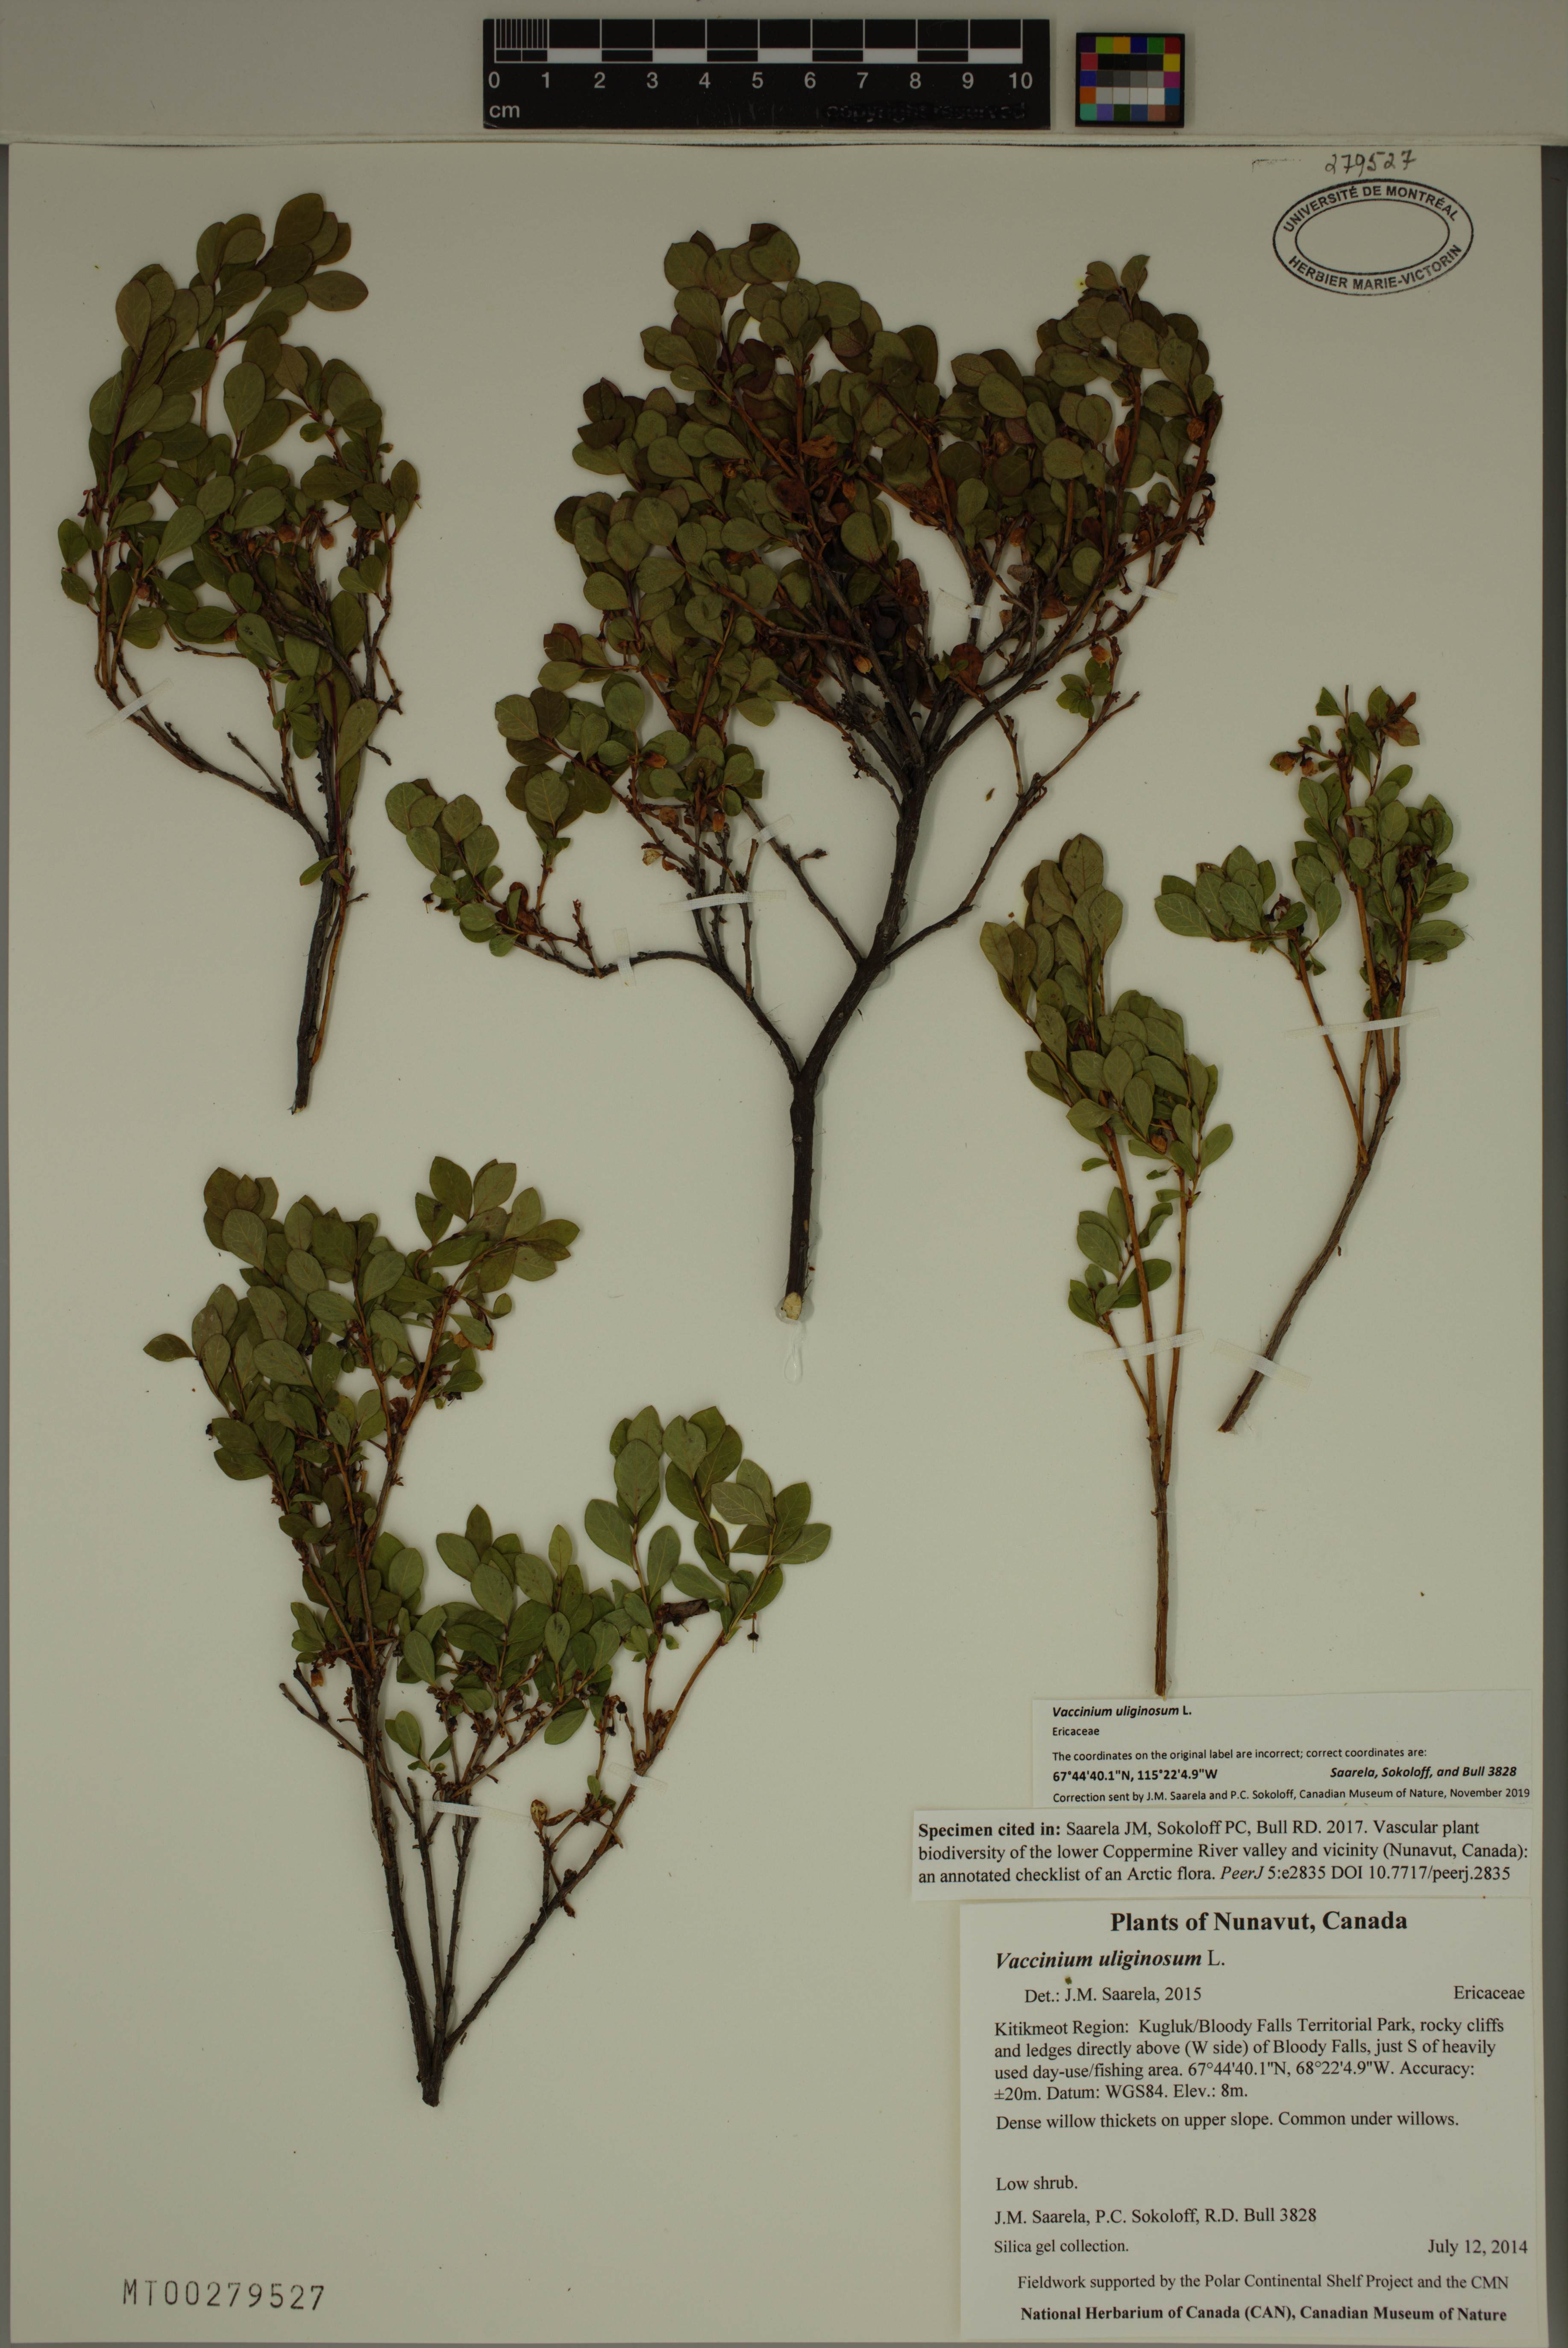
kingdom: Plantae
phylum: Tracheophyta
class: Magnoliopsida
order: Ericales
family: Ericaceae
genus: Vaccinium
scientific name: Vaccinium uliginosum
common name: Bog bilberry
